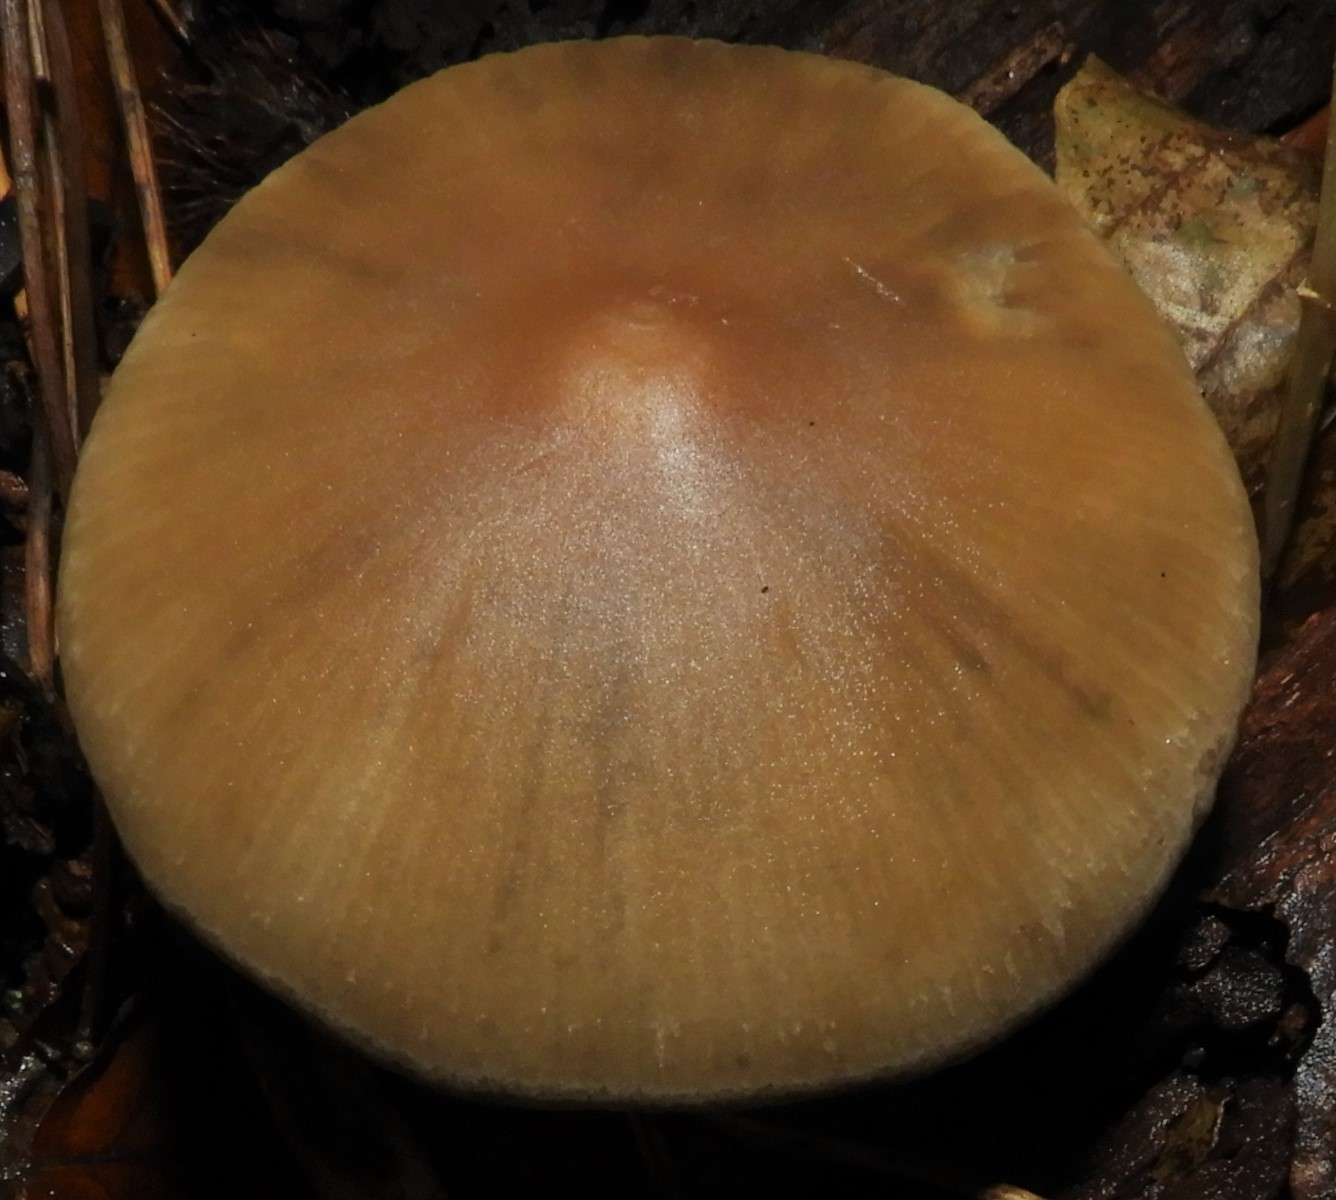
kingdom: Fungi
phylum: Basidiomycota
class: Agaricomycetes
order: Agaricales
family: Psathyrellaceae
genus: Psathyrella
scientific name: Psathyrella
